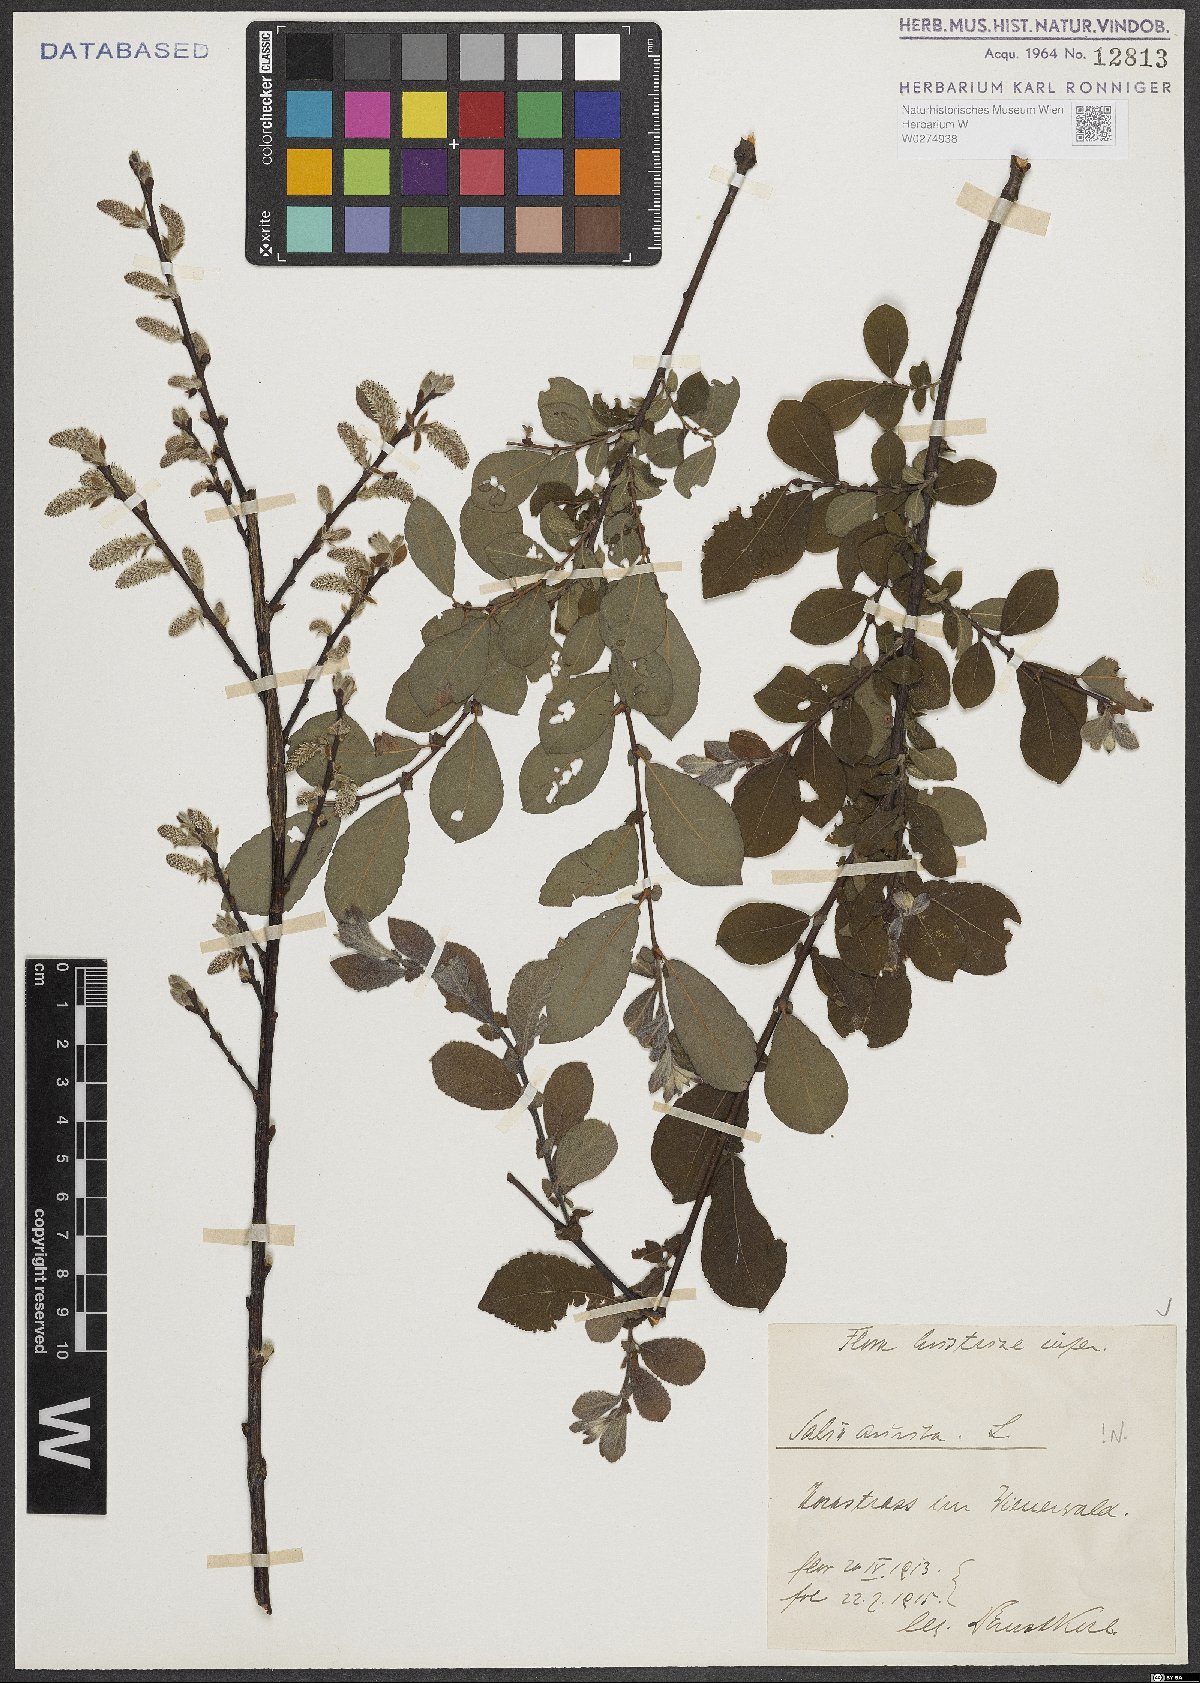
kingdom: Plantae
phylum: Tracheophyta
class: Magnoliopsida
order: Malpighiales
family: Salicaceae
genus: Salix
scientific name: Salix aurita
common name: Eared willow
